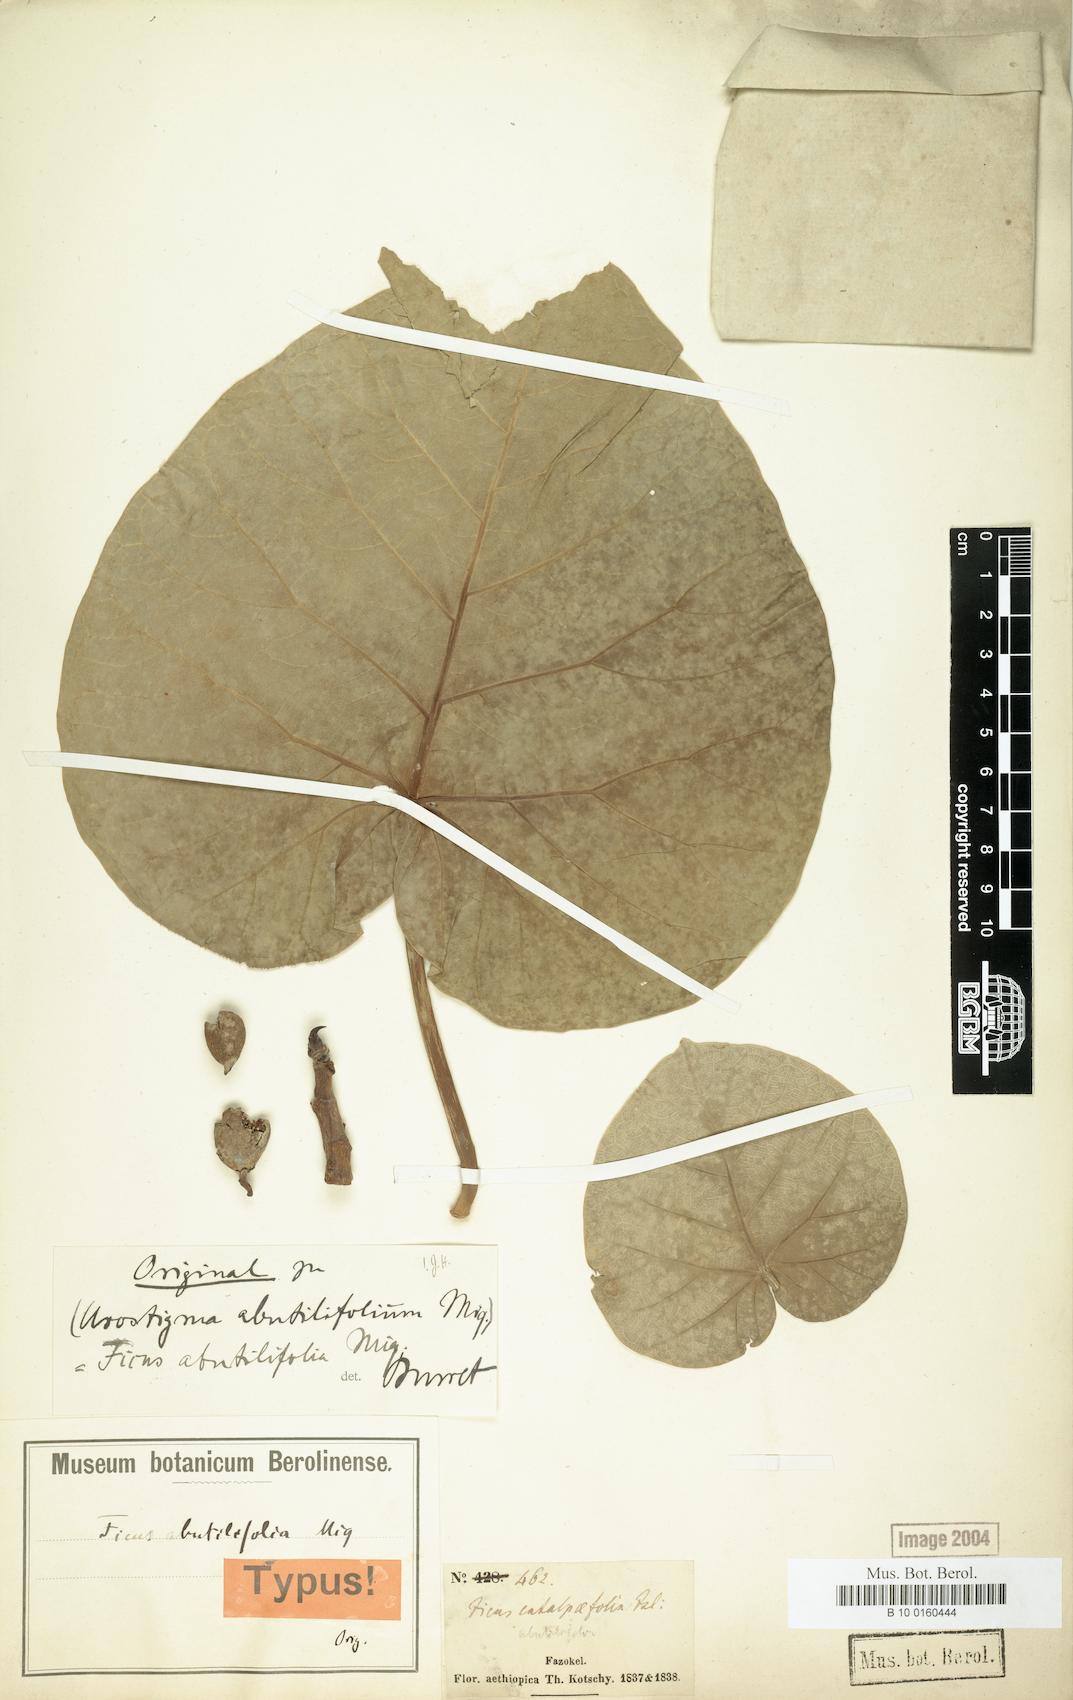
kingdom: Plantae
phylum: Tracheophyta
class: Magnoliopsida
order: Rosales
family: Moraceae
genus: Ficus
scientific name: Ficus abutilifolia
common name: Large-leaved rock fig
